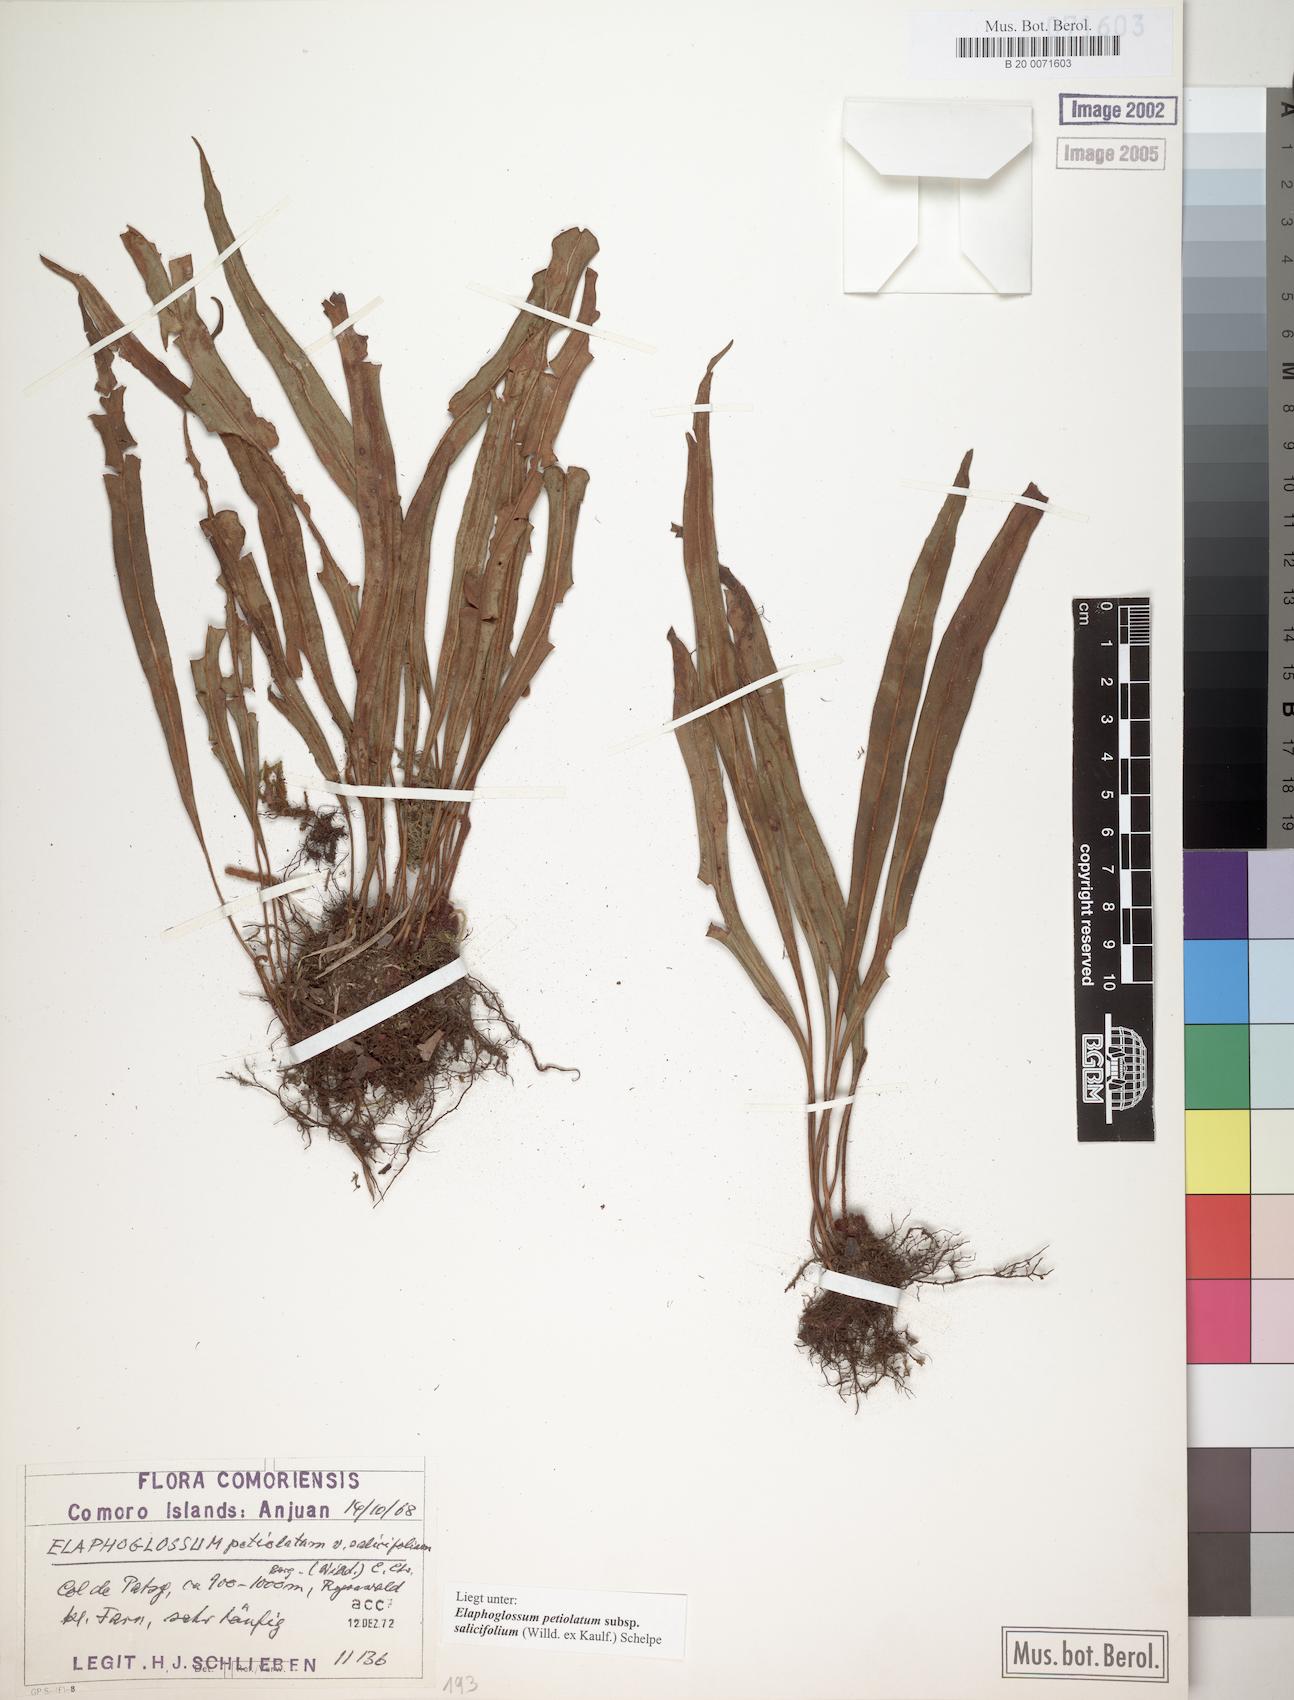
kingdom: Plantae
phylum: Tracheophyta
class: Polypodiopsida
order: Polypodiales
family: Dryopteridaceae
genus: Elaphoglossum
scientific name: Elaphoglossum lancifolium
